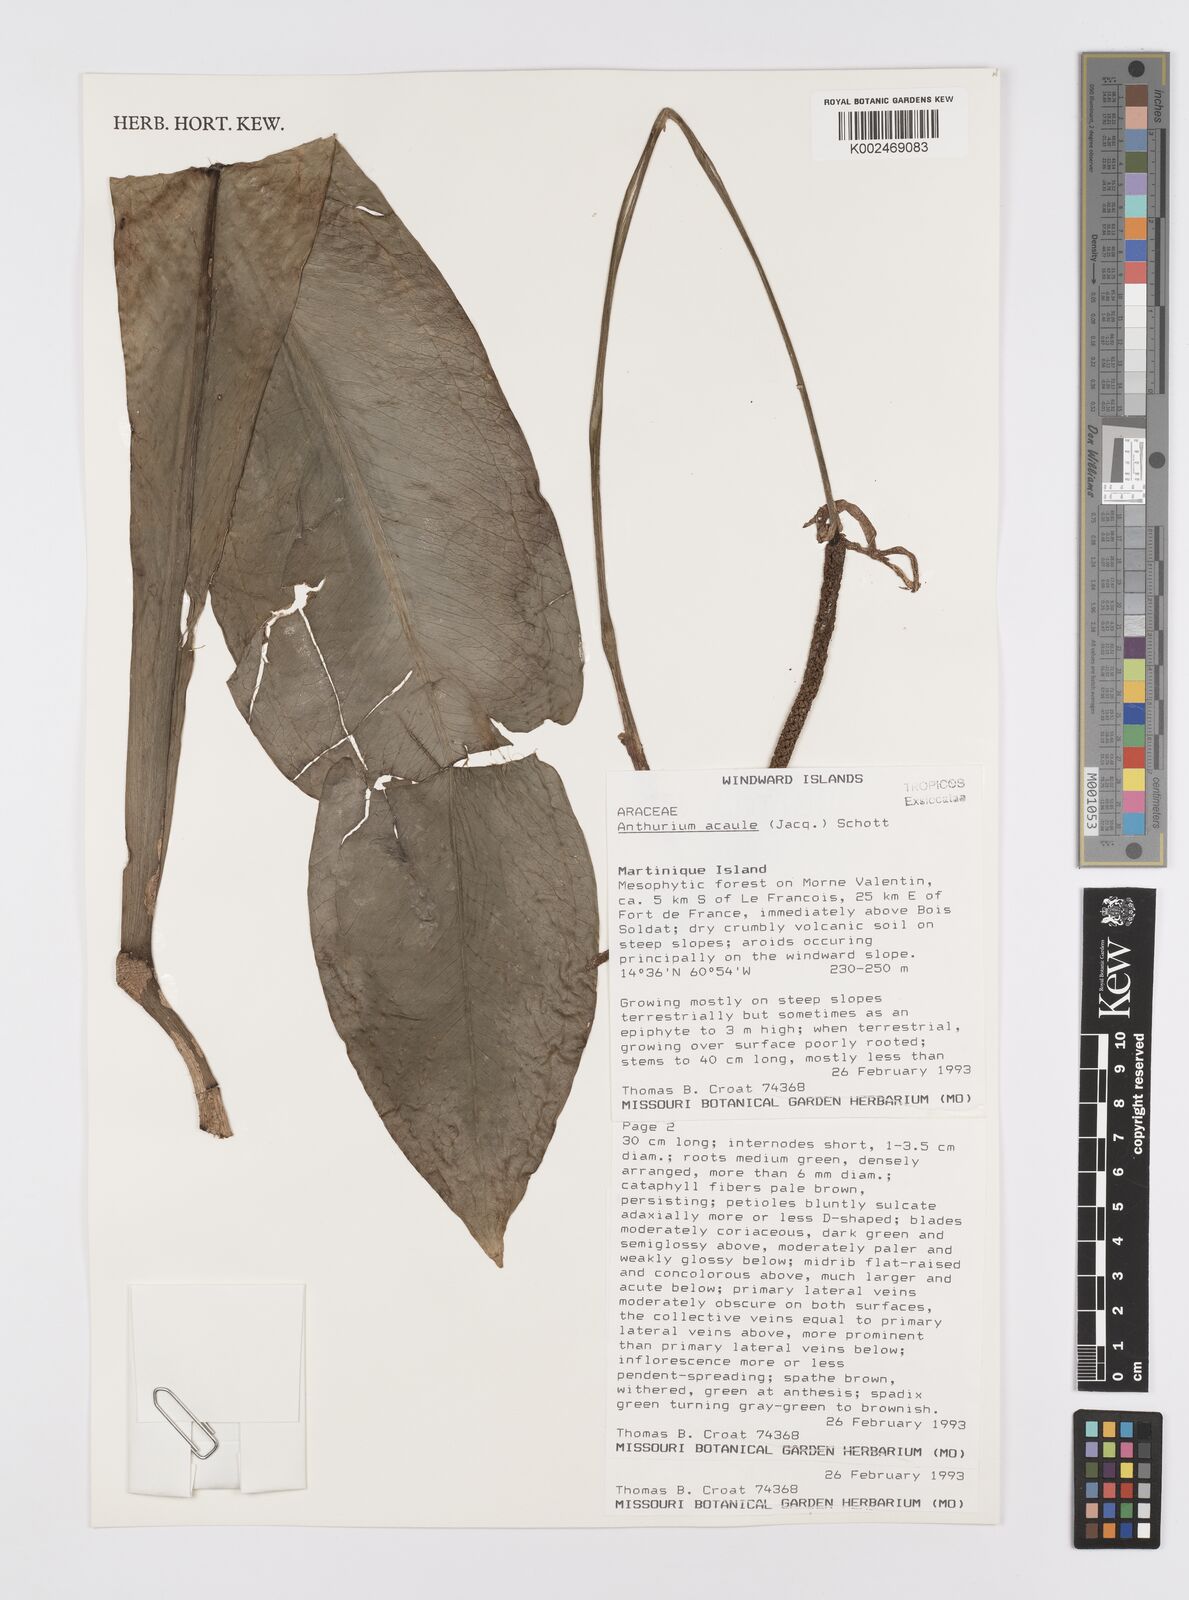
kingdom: Plantae
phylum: Tracheophyta
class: Liliopsida
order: Alismatales
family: Araceae
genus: Anthurium
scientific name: Anthurium acaule
